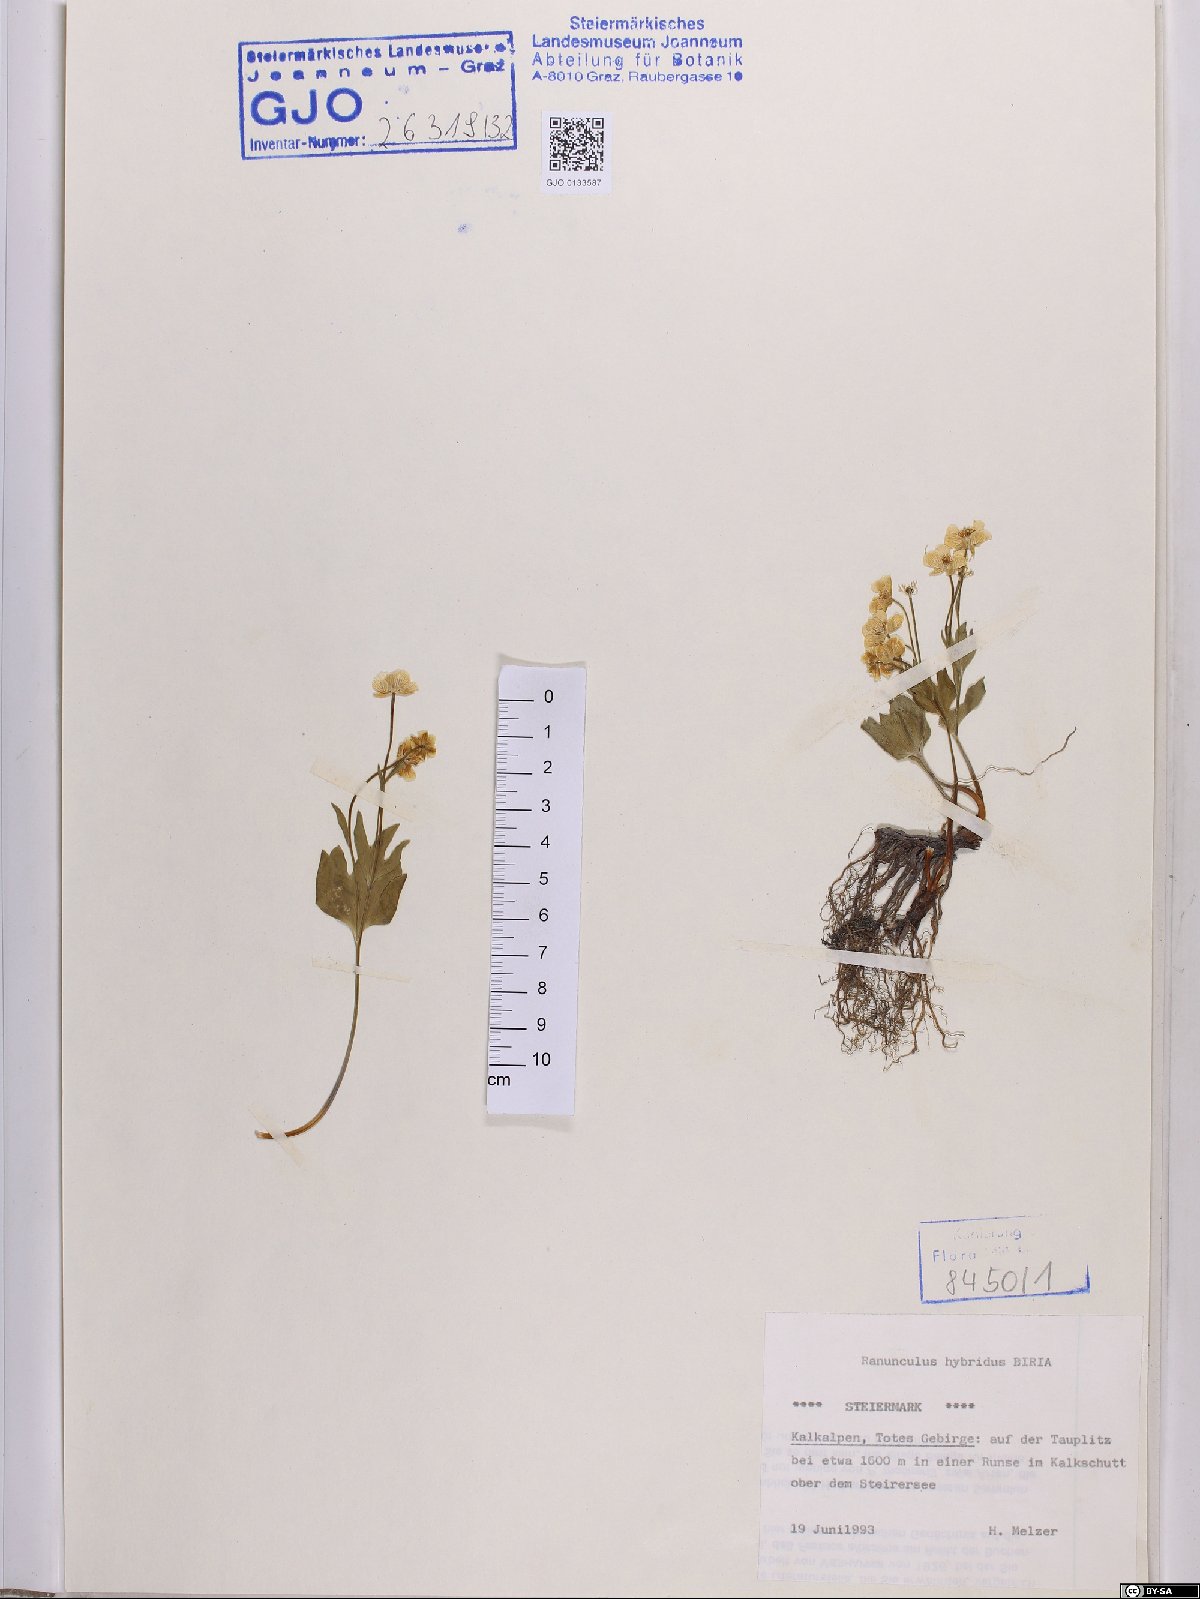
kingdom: Plantae
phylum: Tracheophyta
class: Magnoliopsida
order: Ranunculales
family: Ranunculaceae
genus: Ranunculus
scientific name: Ranunculus hybridus
